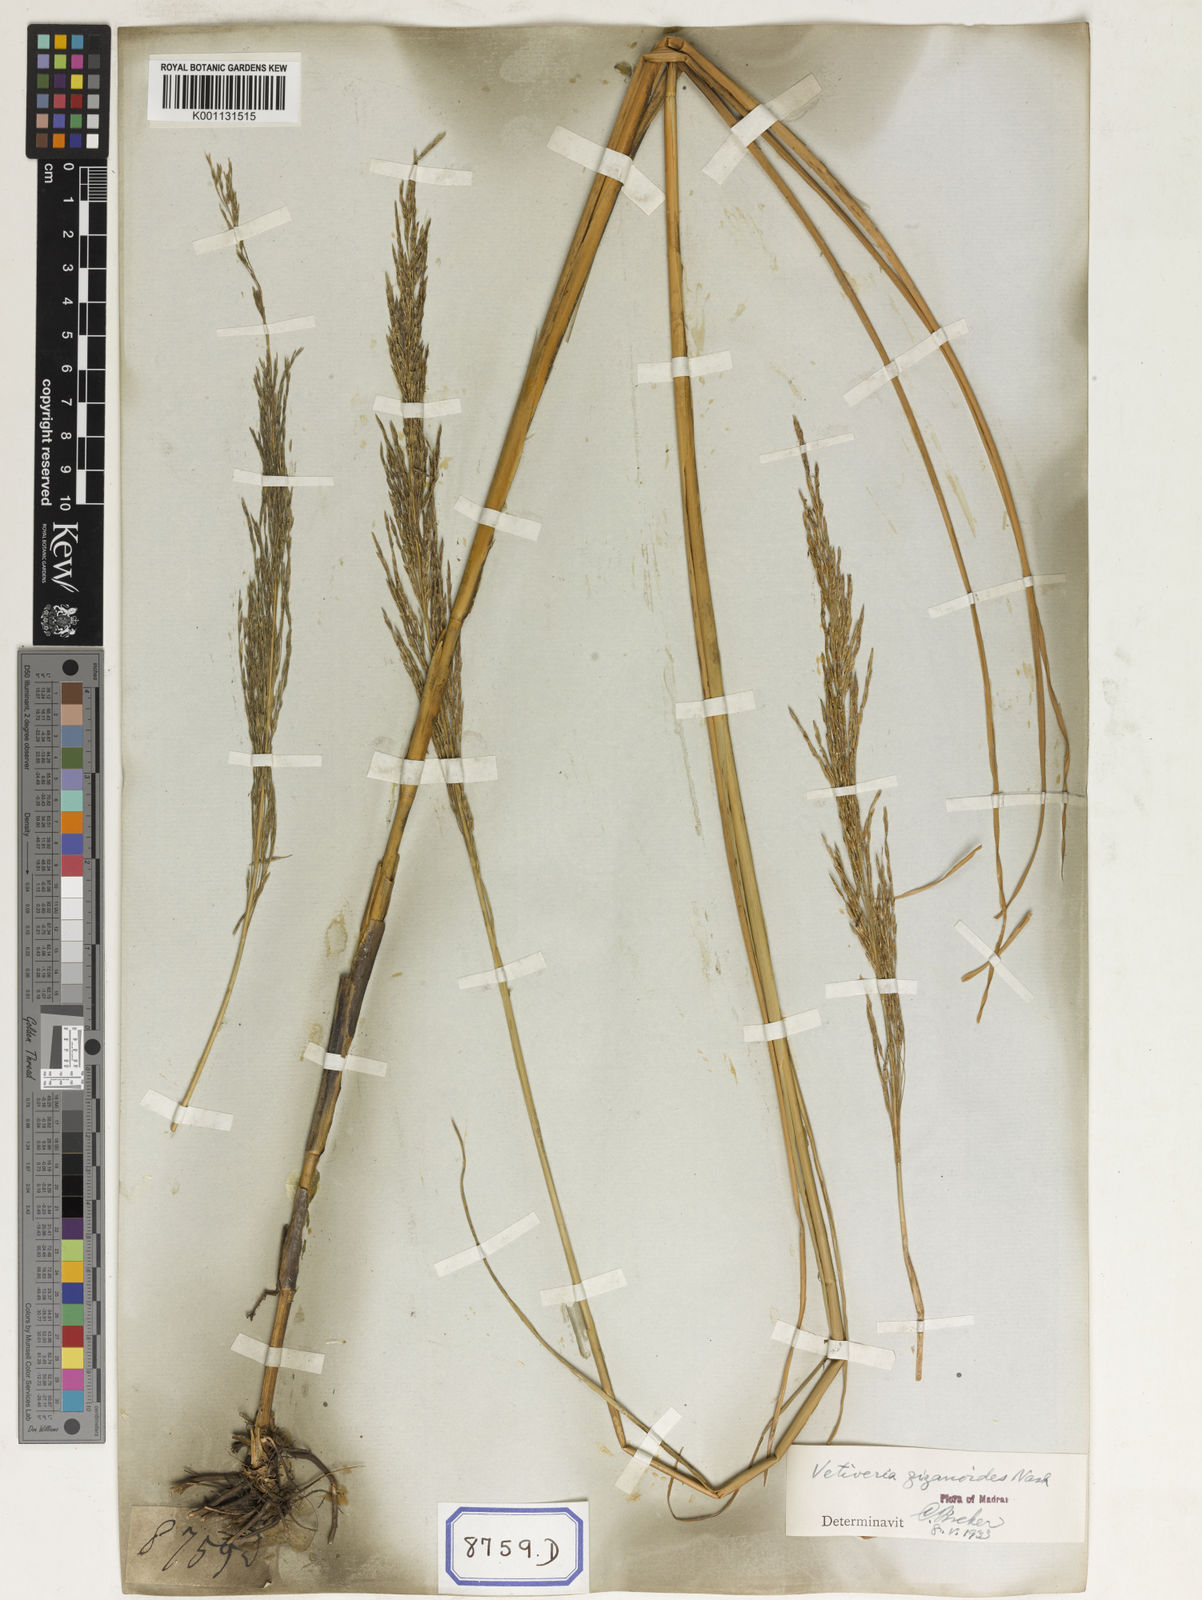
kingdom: Plantae
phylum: Tracheophyta
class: Liliopsida
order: Poales
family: Poaceae
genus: Chrysopogon
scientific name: Chrysopogon zizanioides
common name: False beardgrass
